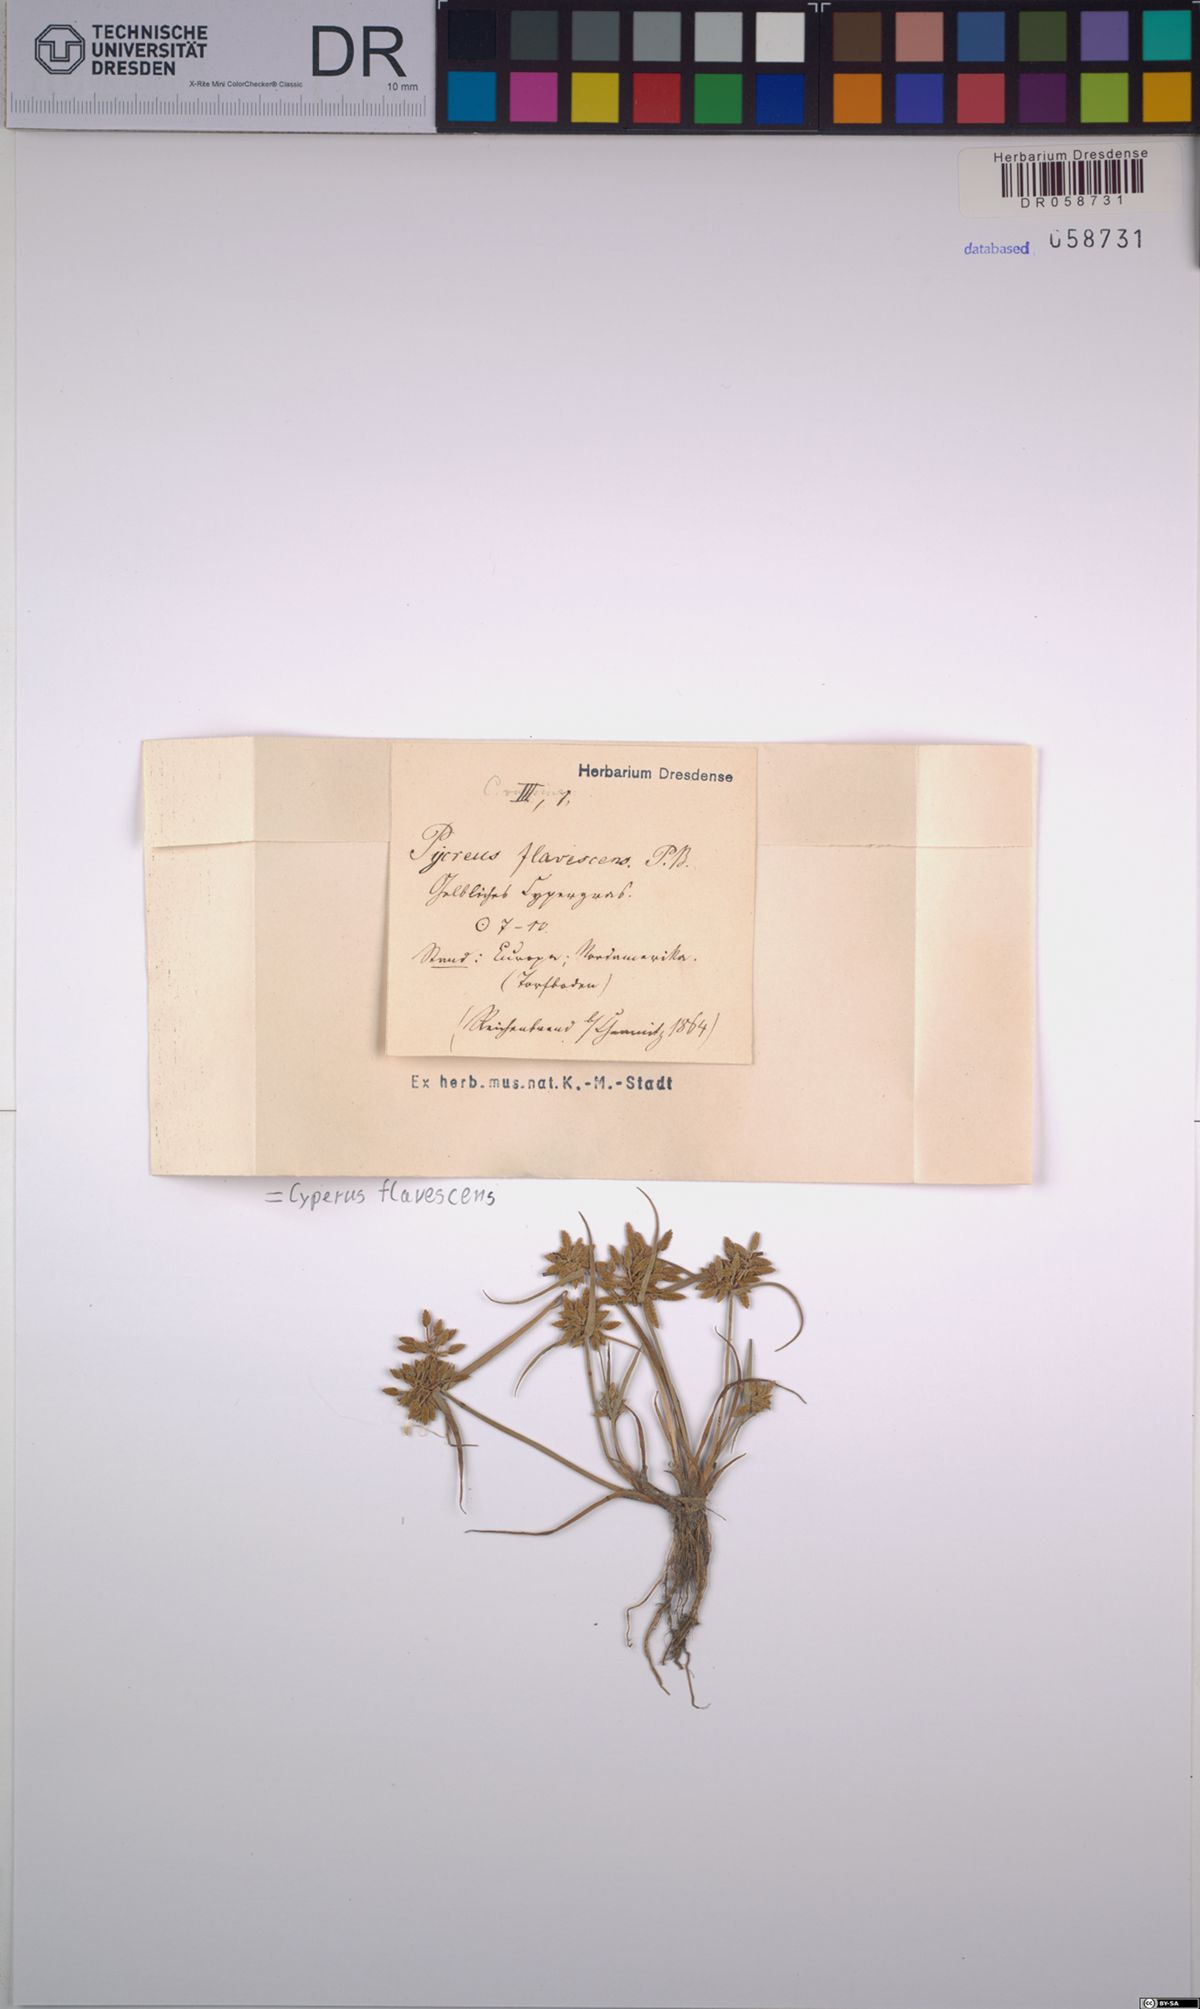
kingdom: Plantae
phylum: Tracheophyta
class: Liliopsida
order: Poales
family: Cyperaceae
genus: Cyperus
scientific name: Cyperus flavescens
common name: Yellow galingale
